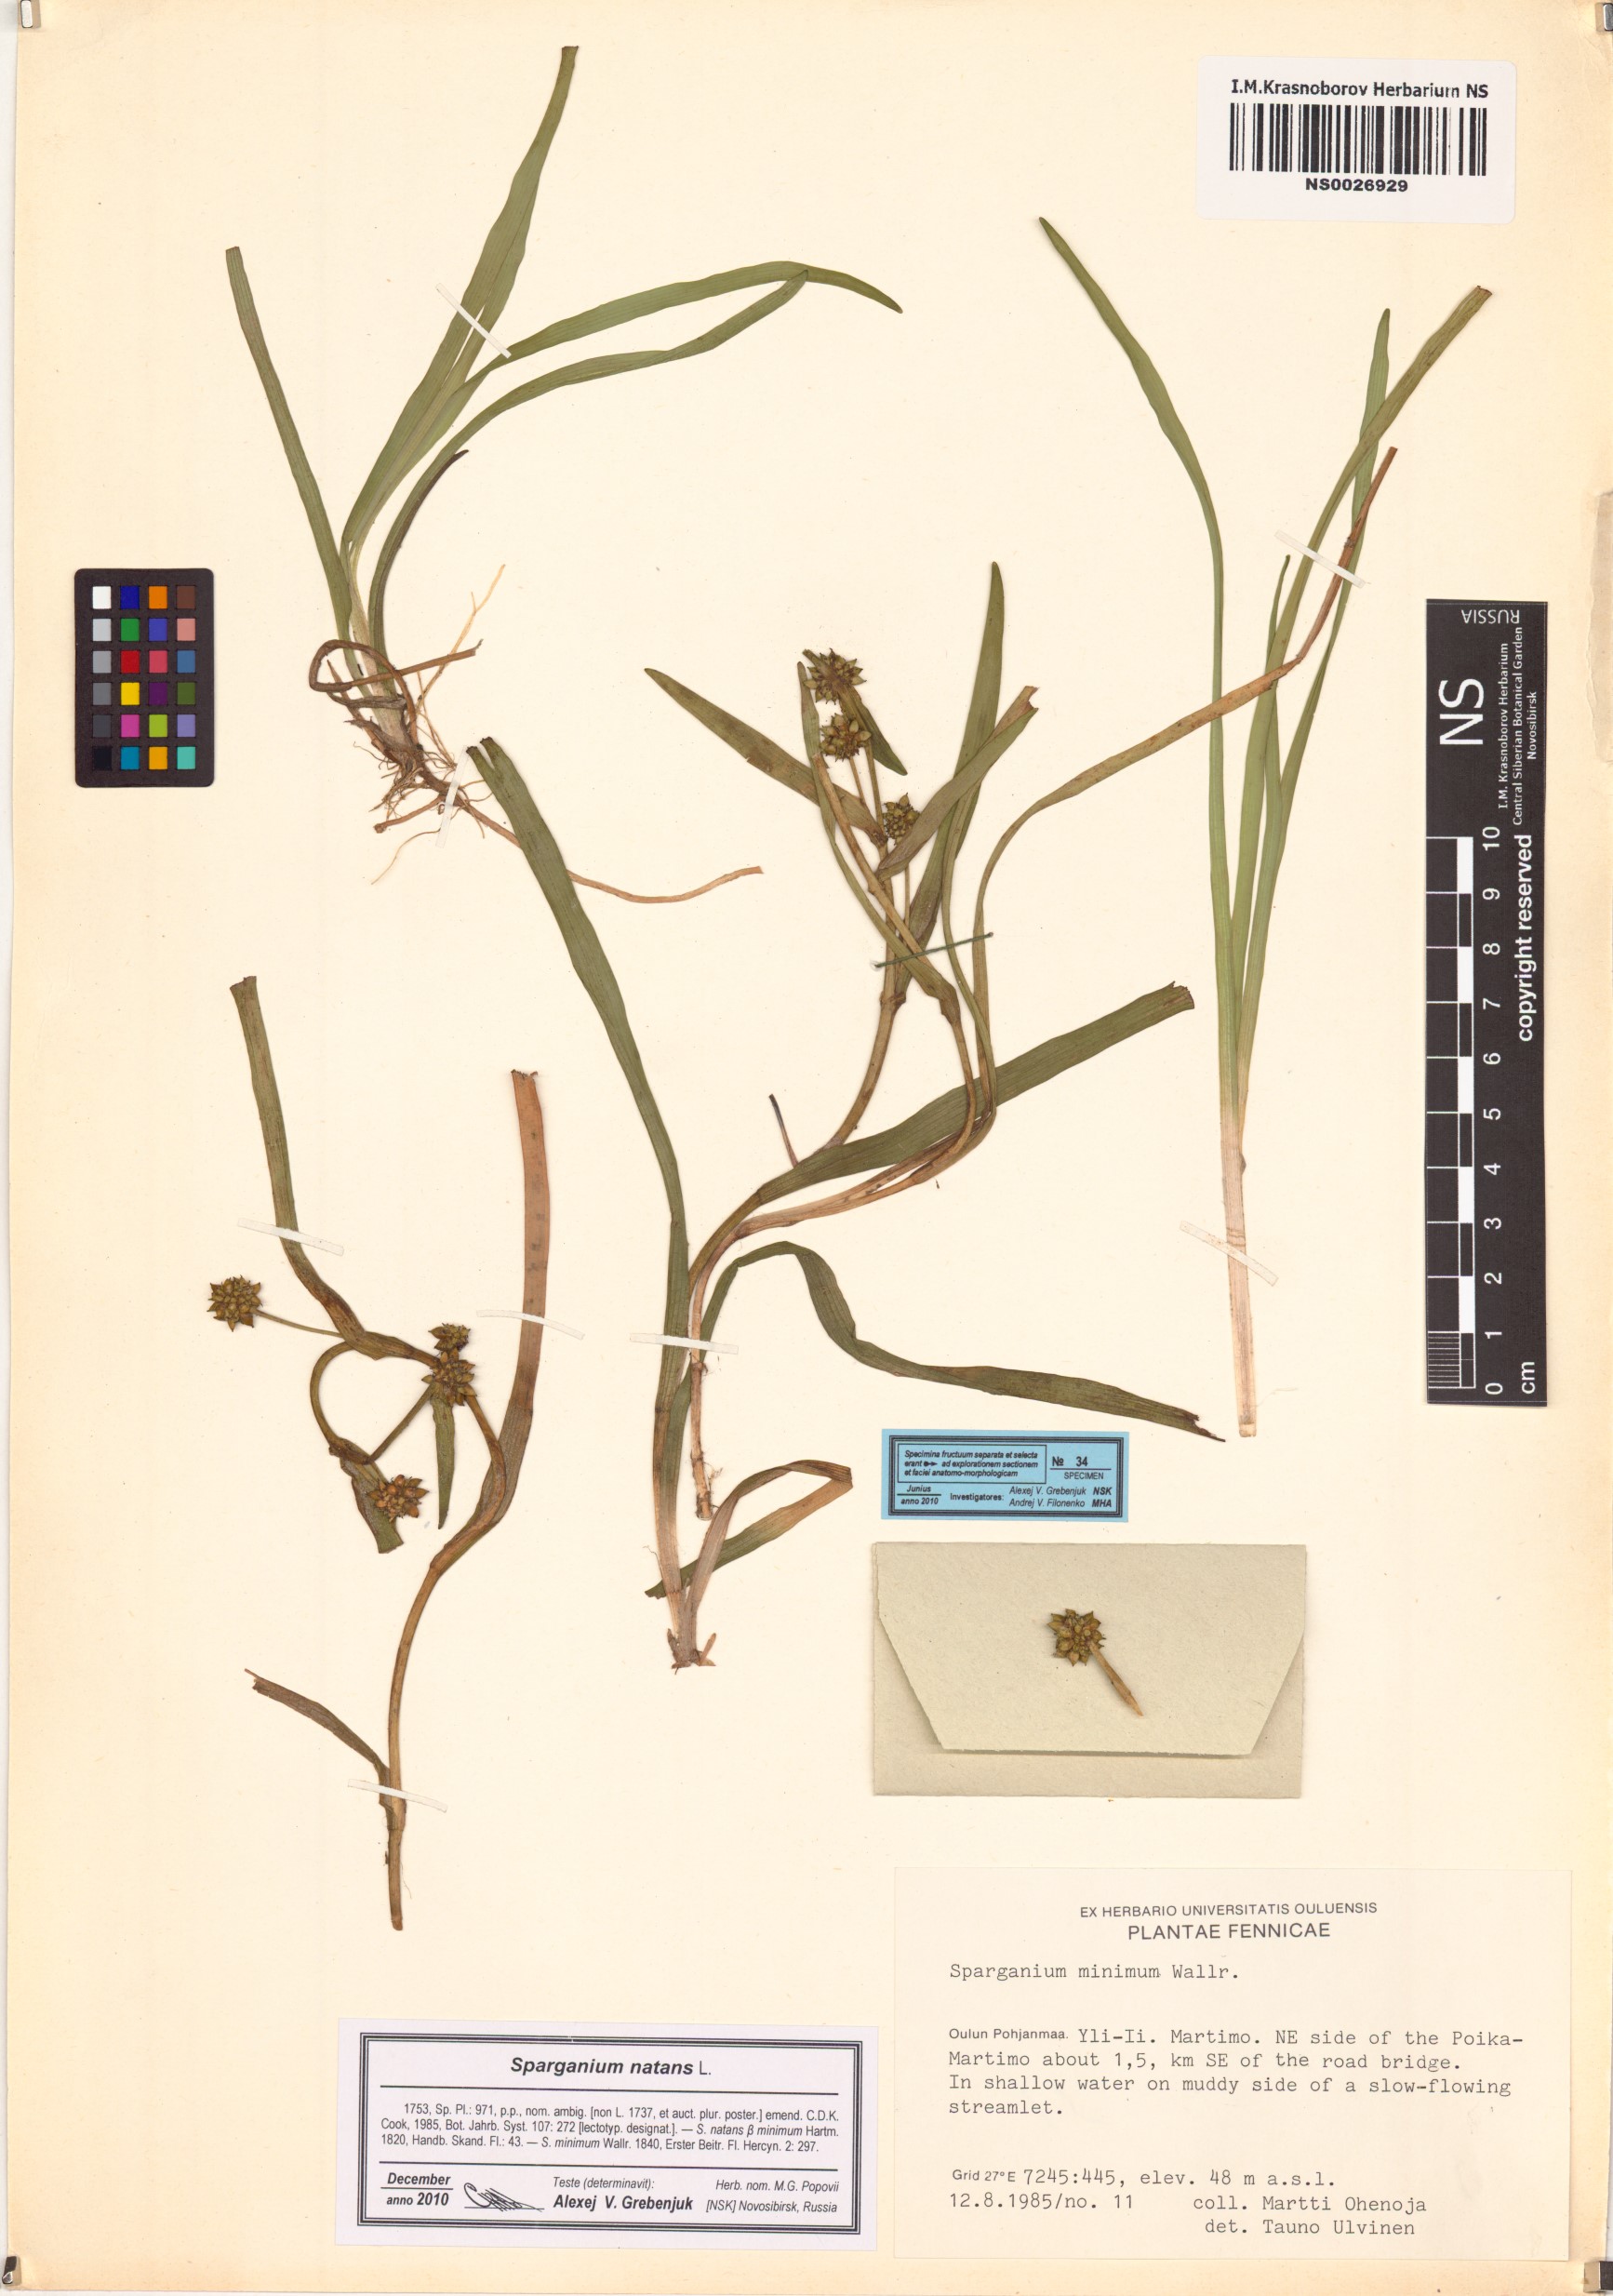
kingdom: Plantae
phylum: Tracheophyta
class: Liliopsida
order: Poales
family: Typhaceae
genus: Sparganium
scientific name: Sparganium natans
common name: Least bur-reed
